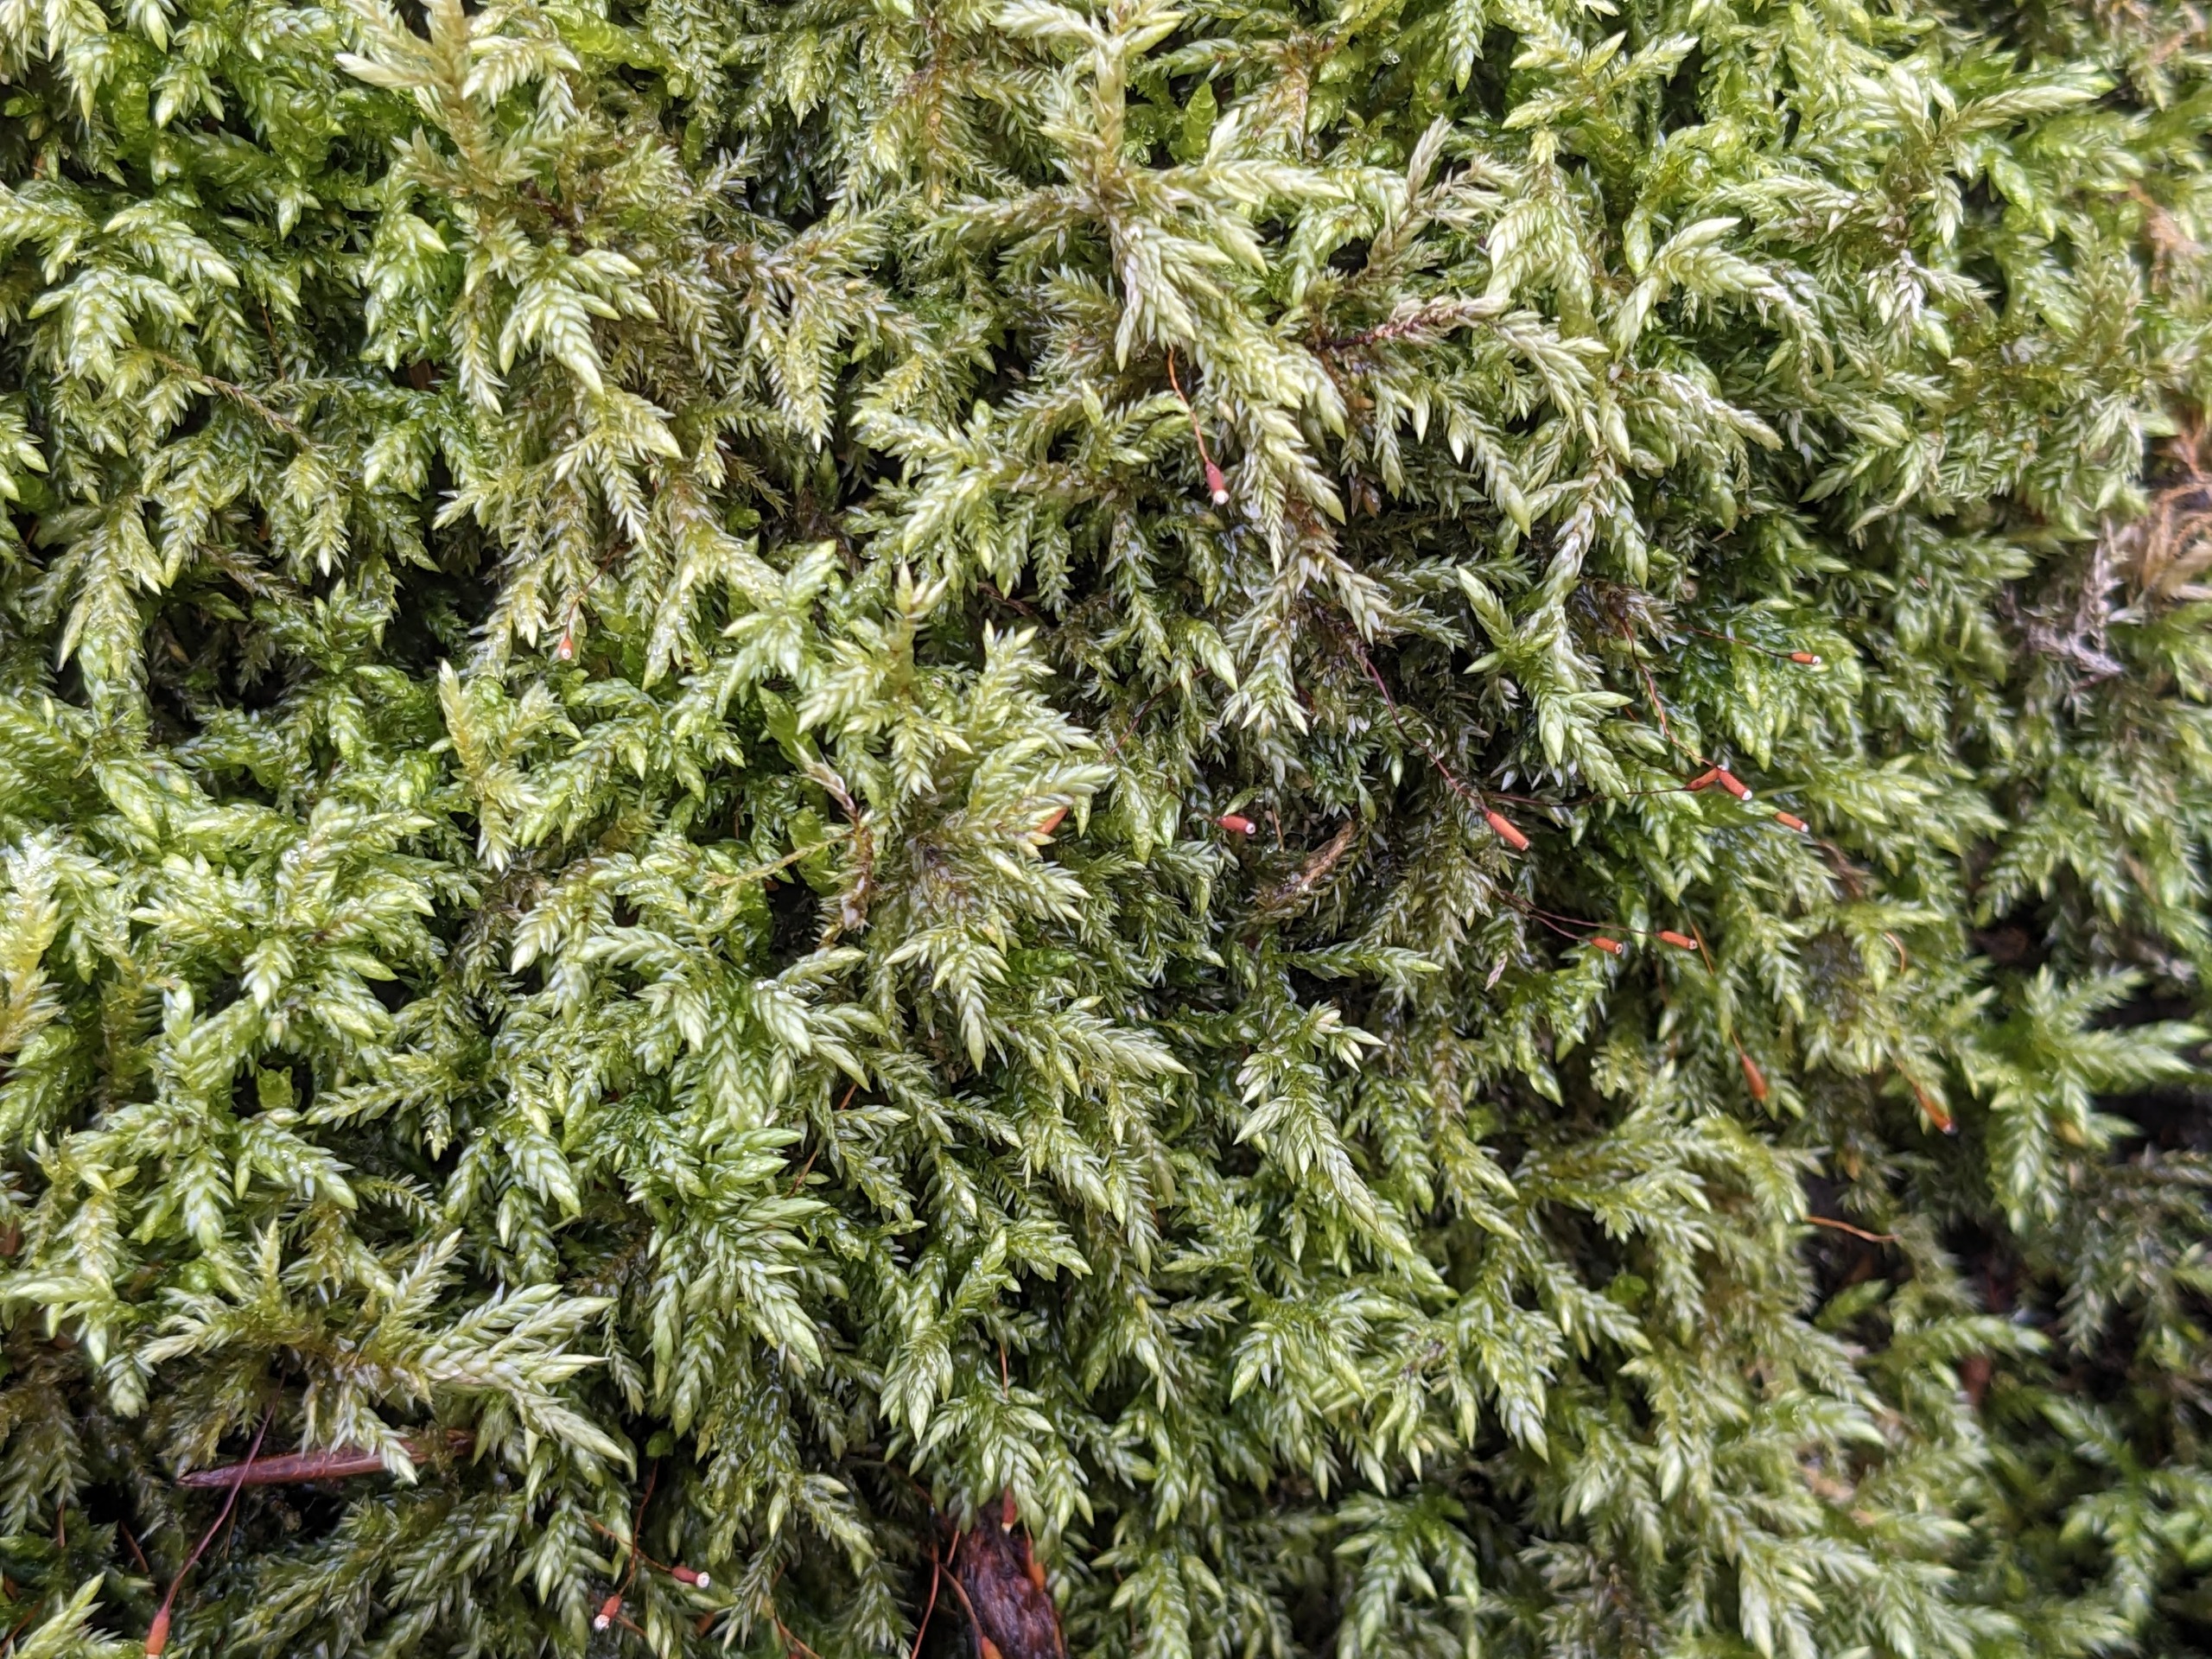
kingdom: Plantae
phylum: Bryophyta
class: Bryopsida
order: Hypnales
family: Lembophyllaceae
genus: Isothecium
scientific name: Isothecium alopecuroides
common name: Stor stammemos
